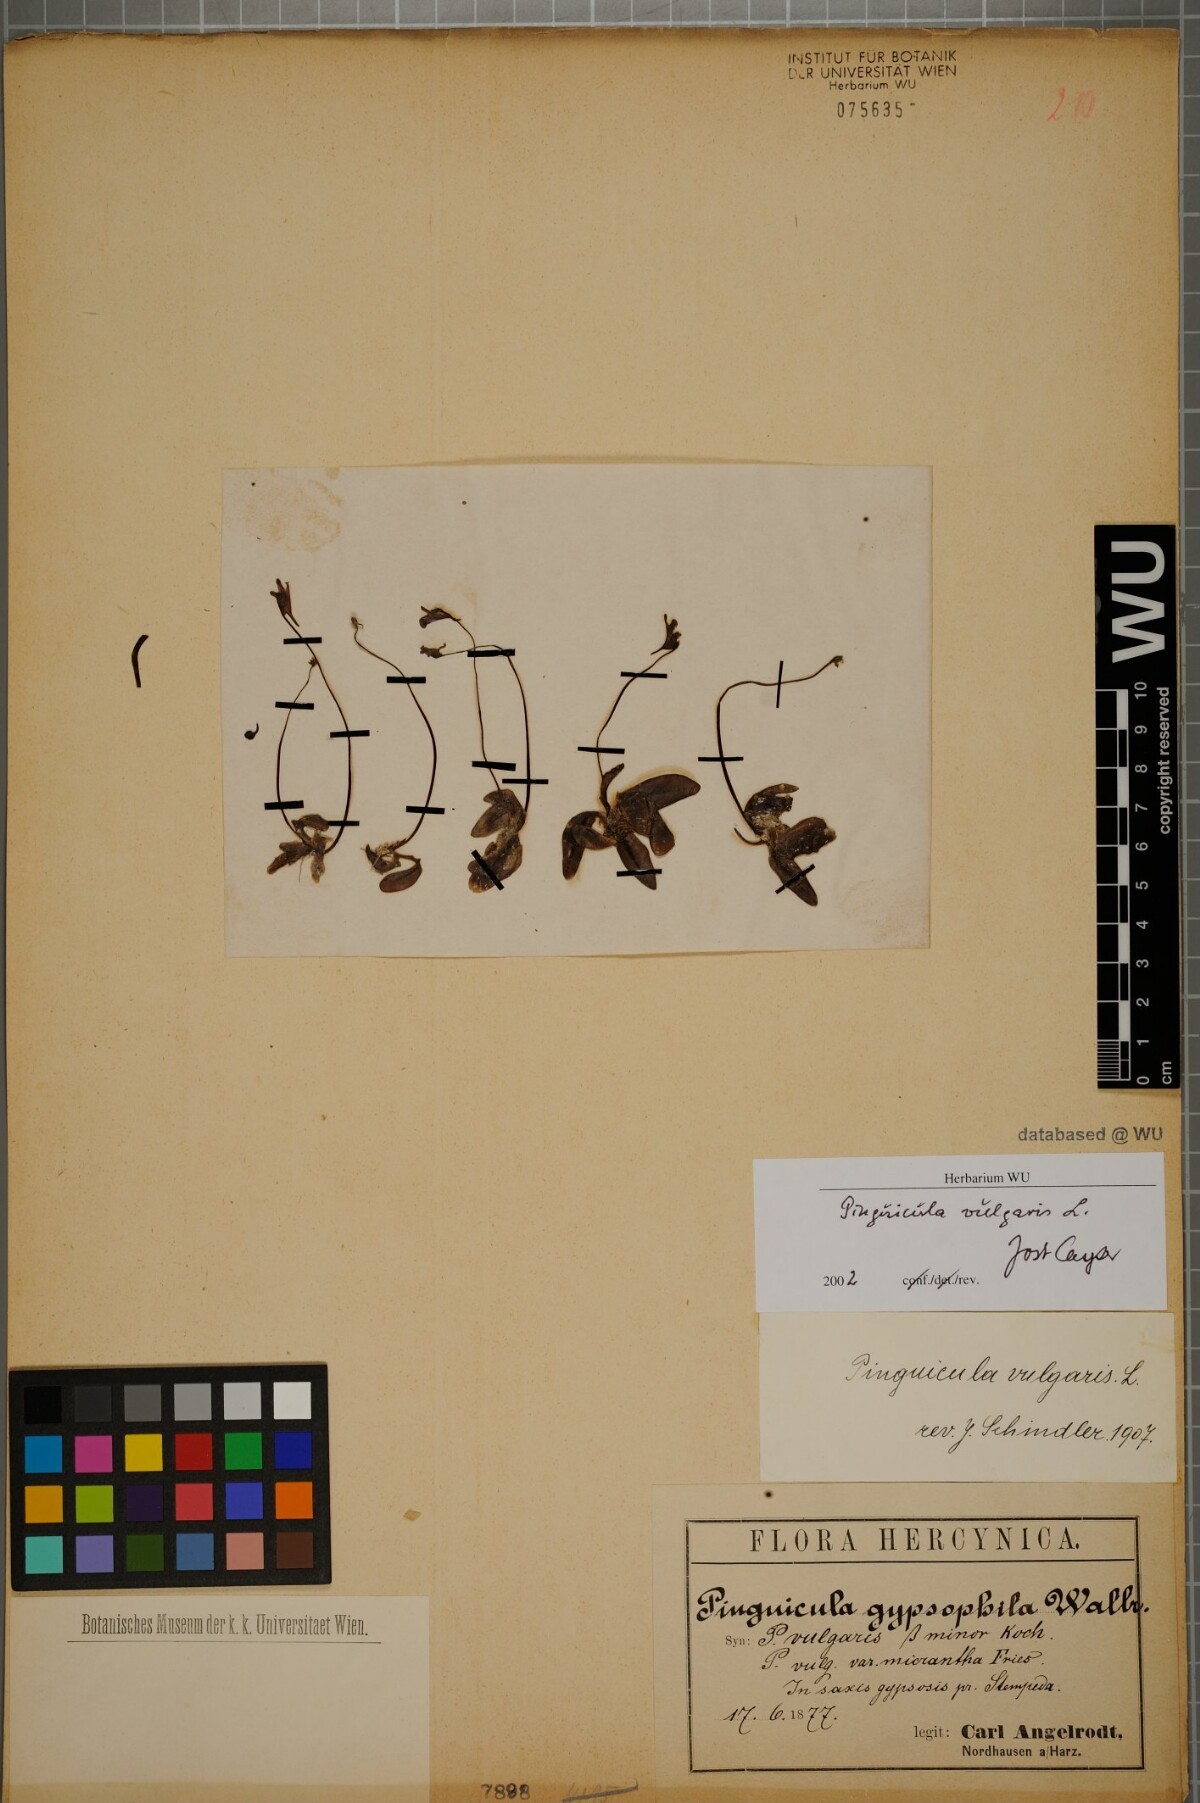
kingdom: Plantae
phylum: Tracheophyta
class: Magnoliopsida
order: Lamiales
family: Lentibulariaceae
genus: Pinguicula
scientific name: Pinguicula vulgaris
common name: Common butterwort
